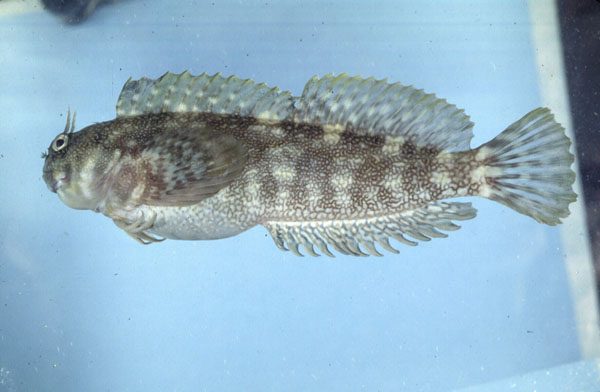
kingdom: Animalia
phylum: Chordata
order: Perciformes
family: Blenniidae
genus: Istiblennius
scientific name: Istiblennius
